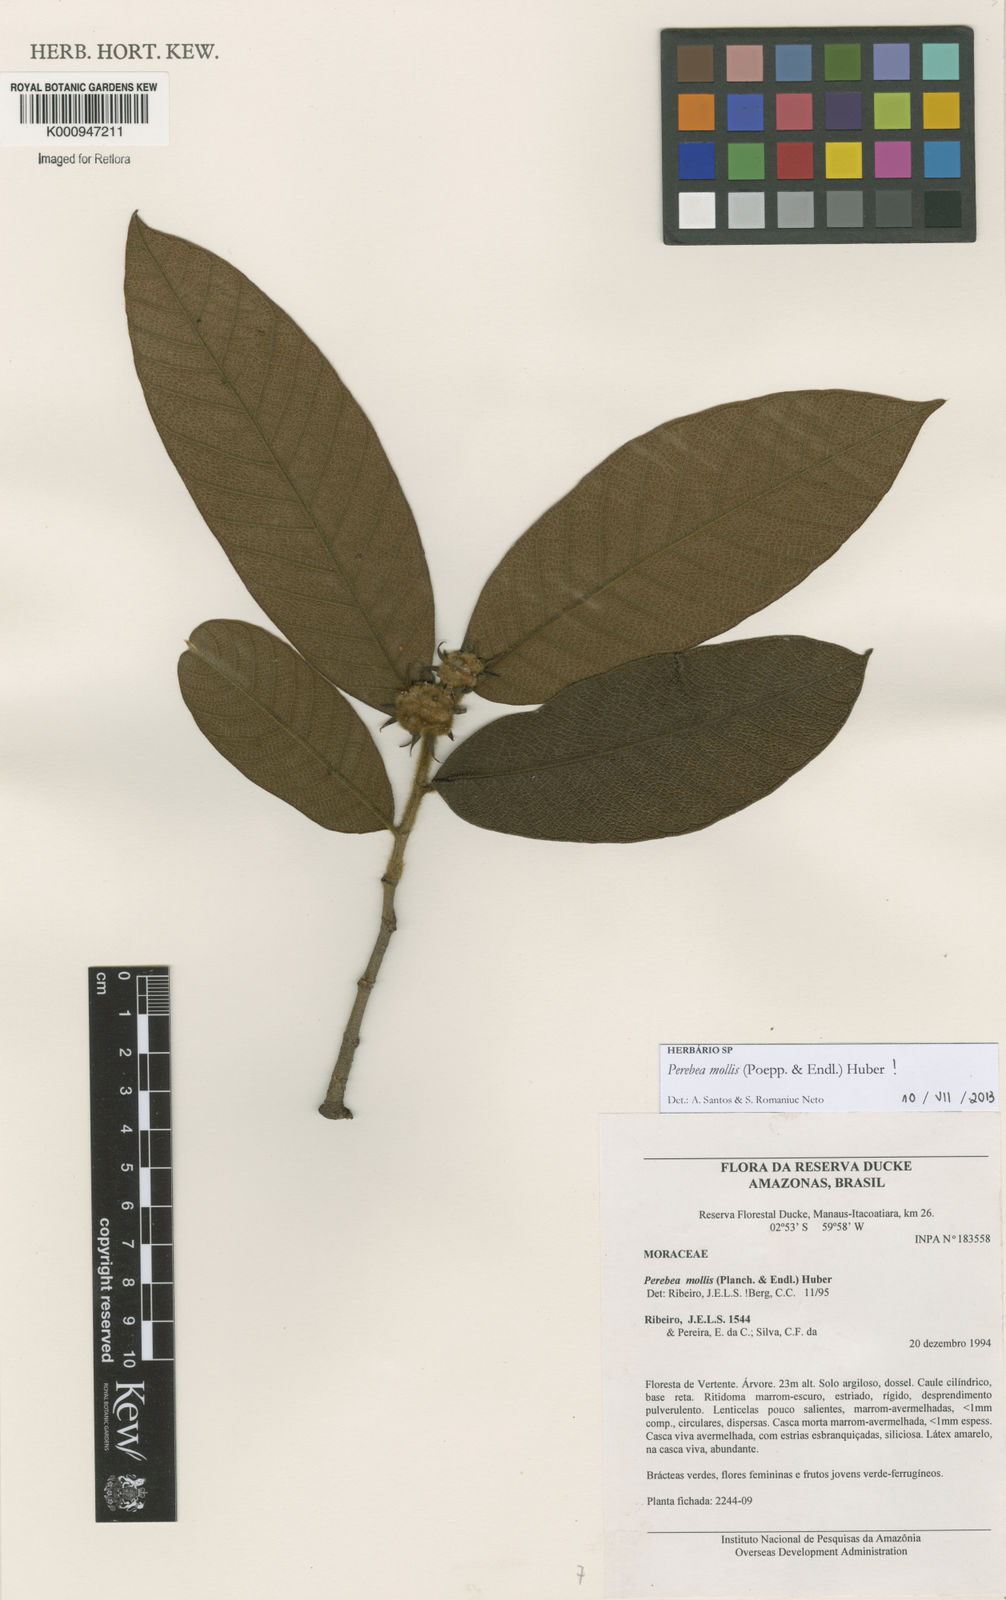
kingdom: Plantae
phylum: Tracheophyta
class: Magnoliopsida
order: Rosales
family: Moraceae
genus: Perebea
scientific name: Perebea mollis
